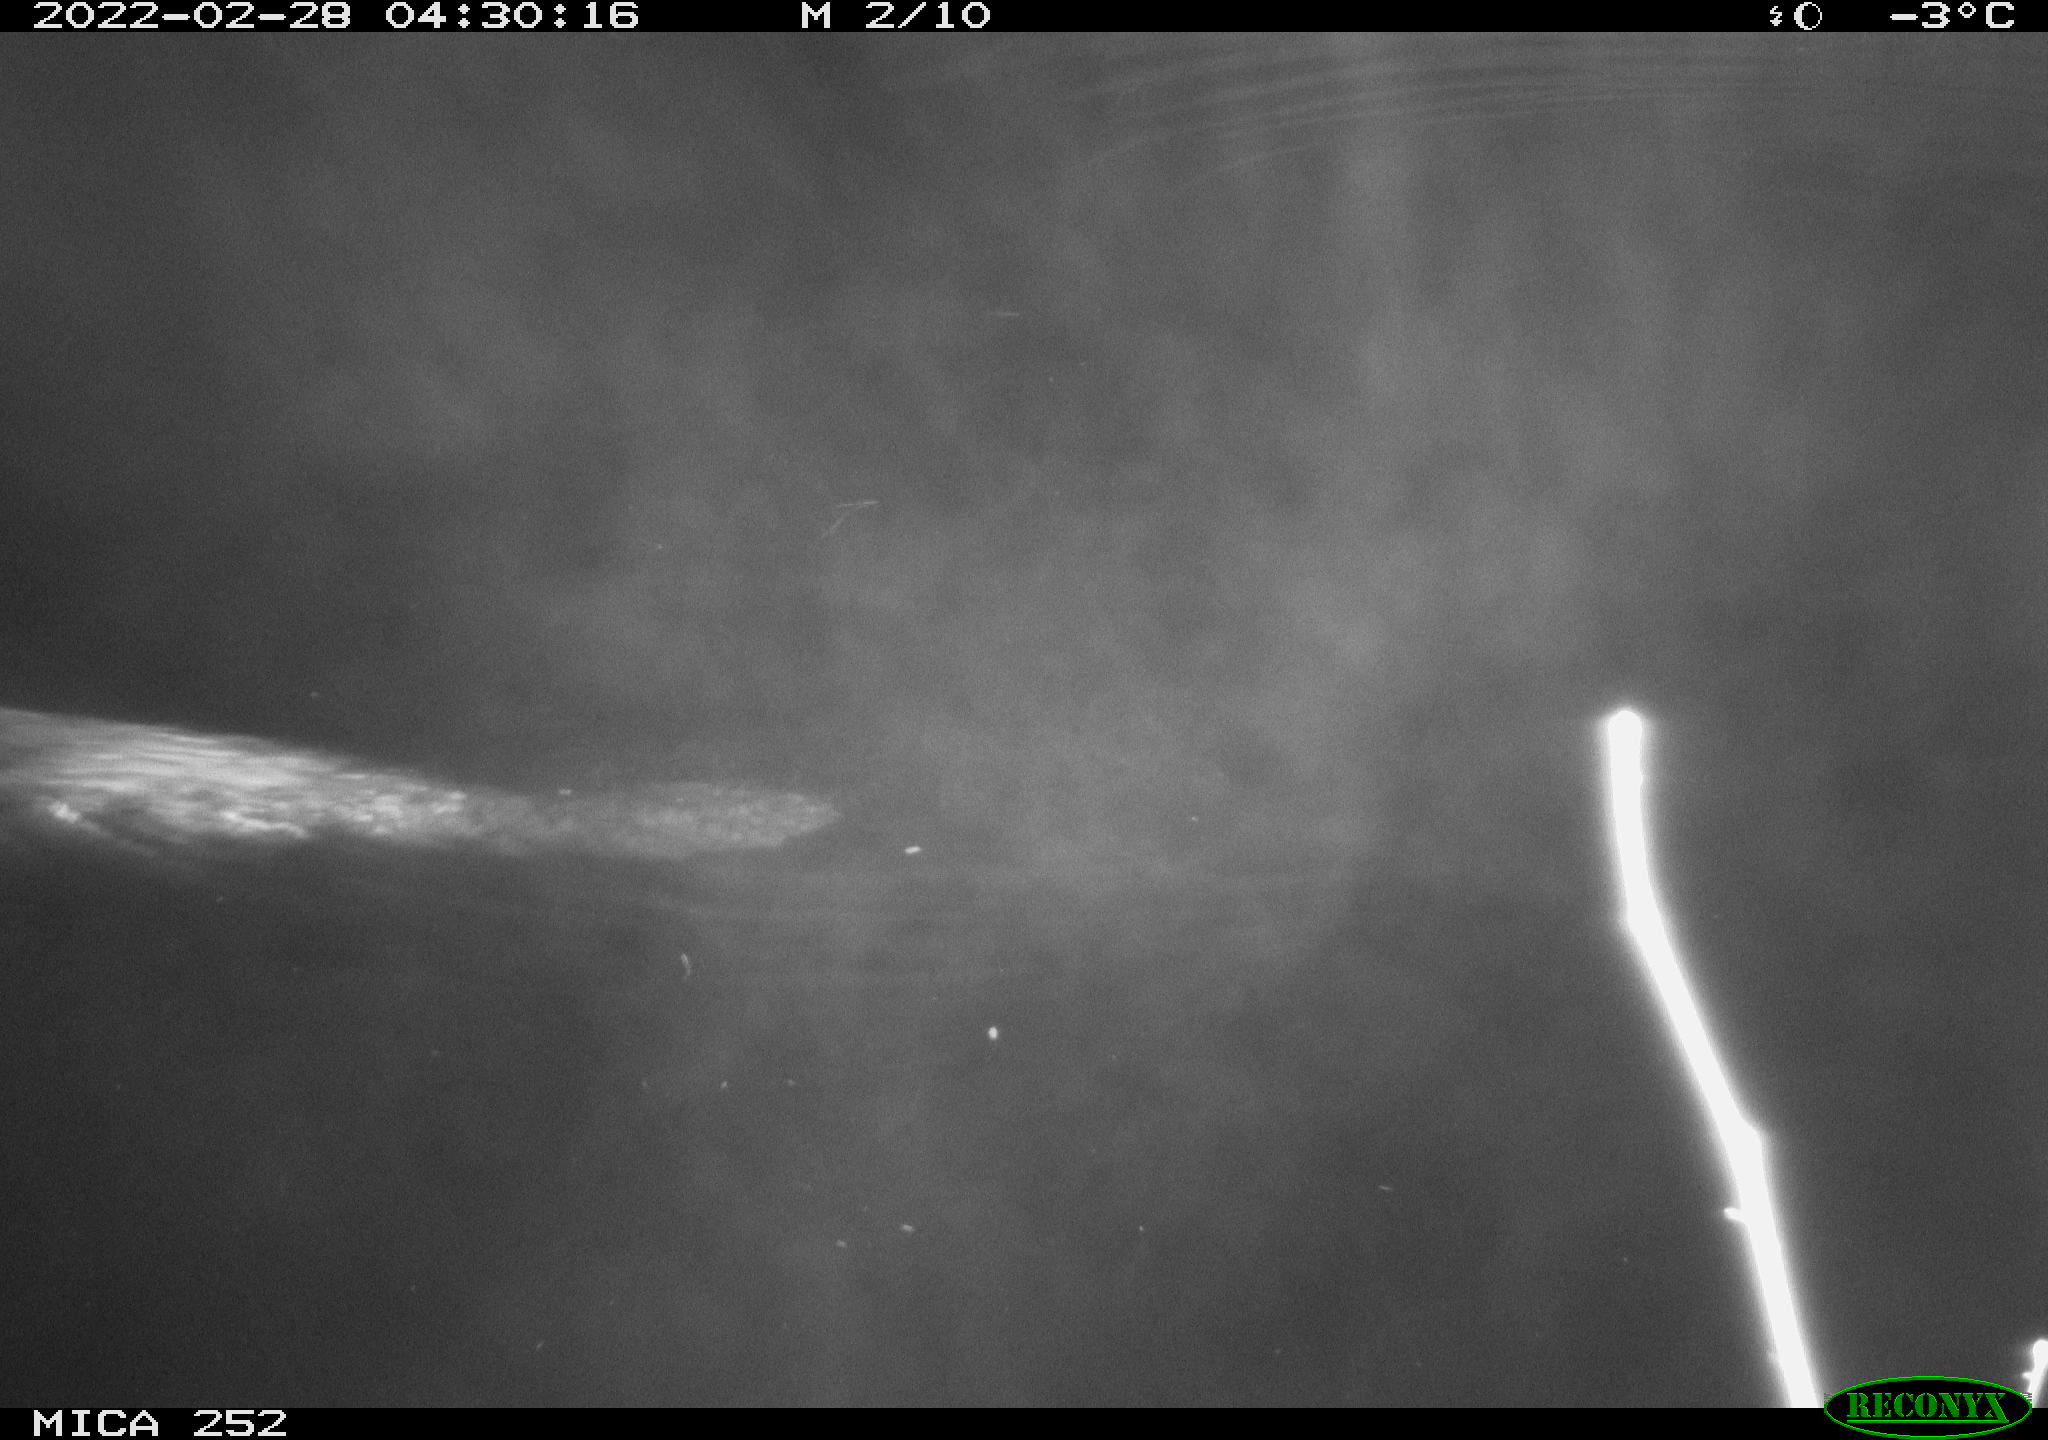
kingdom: Animalia
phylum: Chordata
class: Mammalia
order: Rodentia
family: Castoridae
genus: Castor
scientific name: Castor fiber
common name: Eurasian beaver
